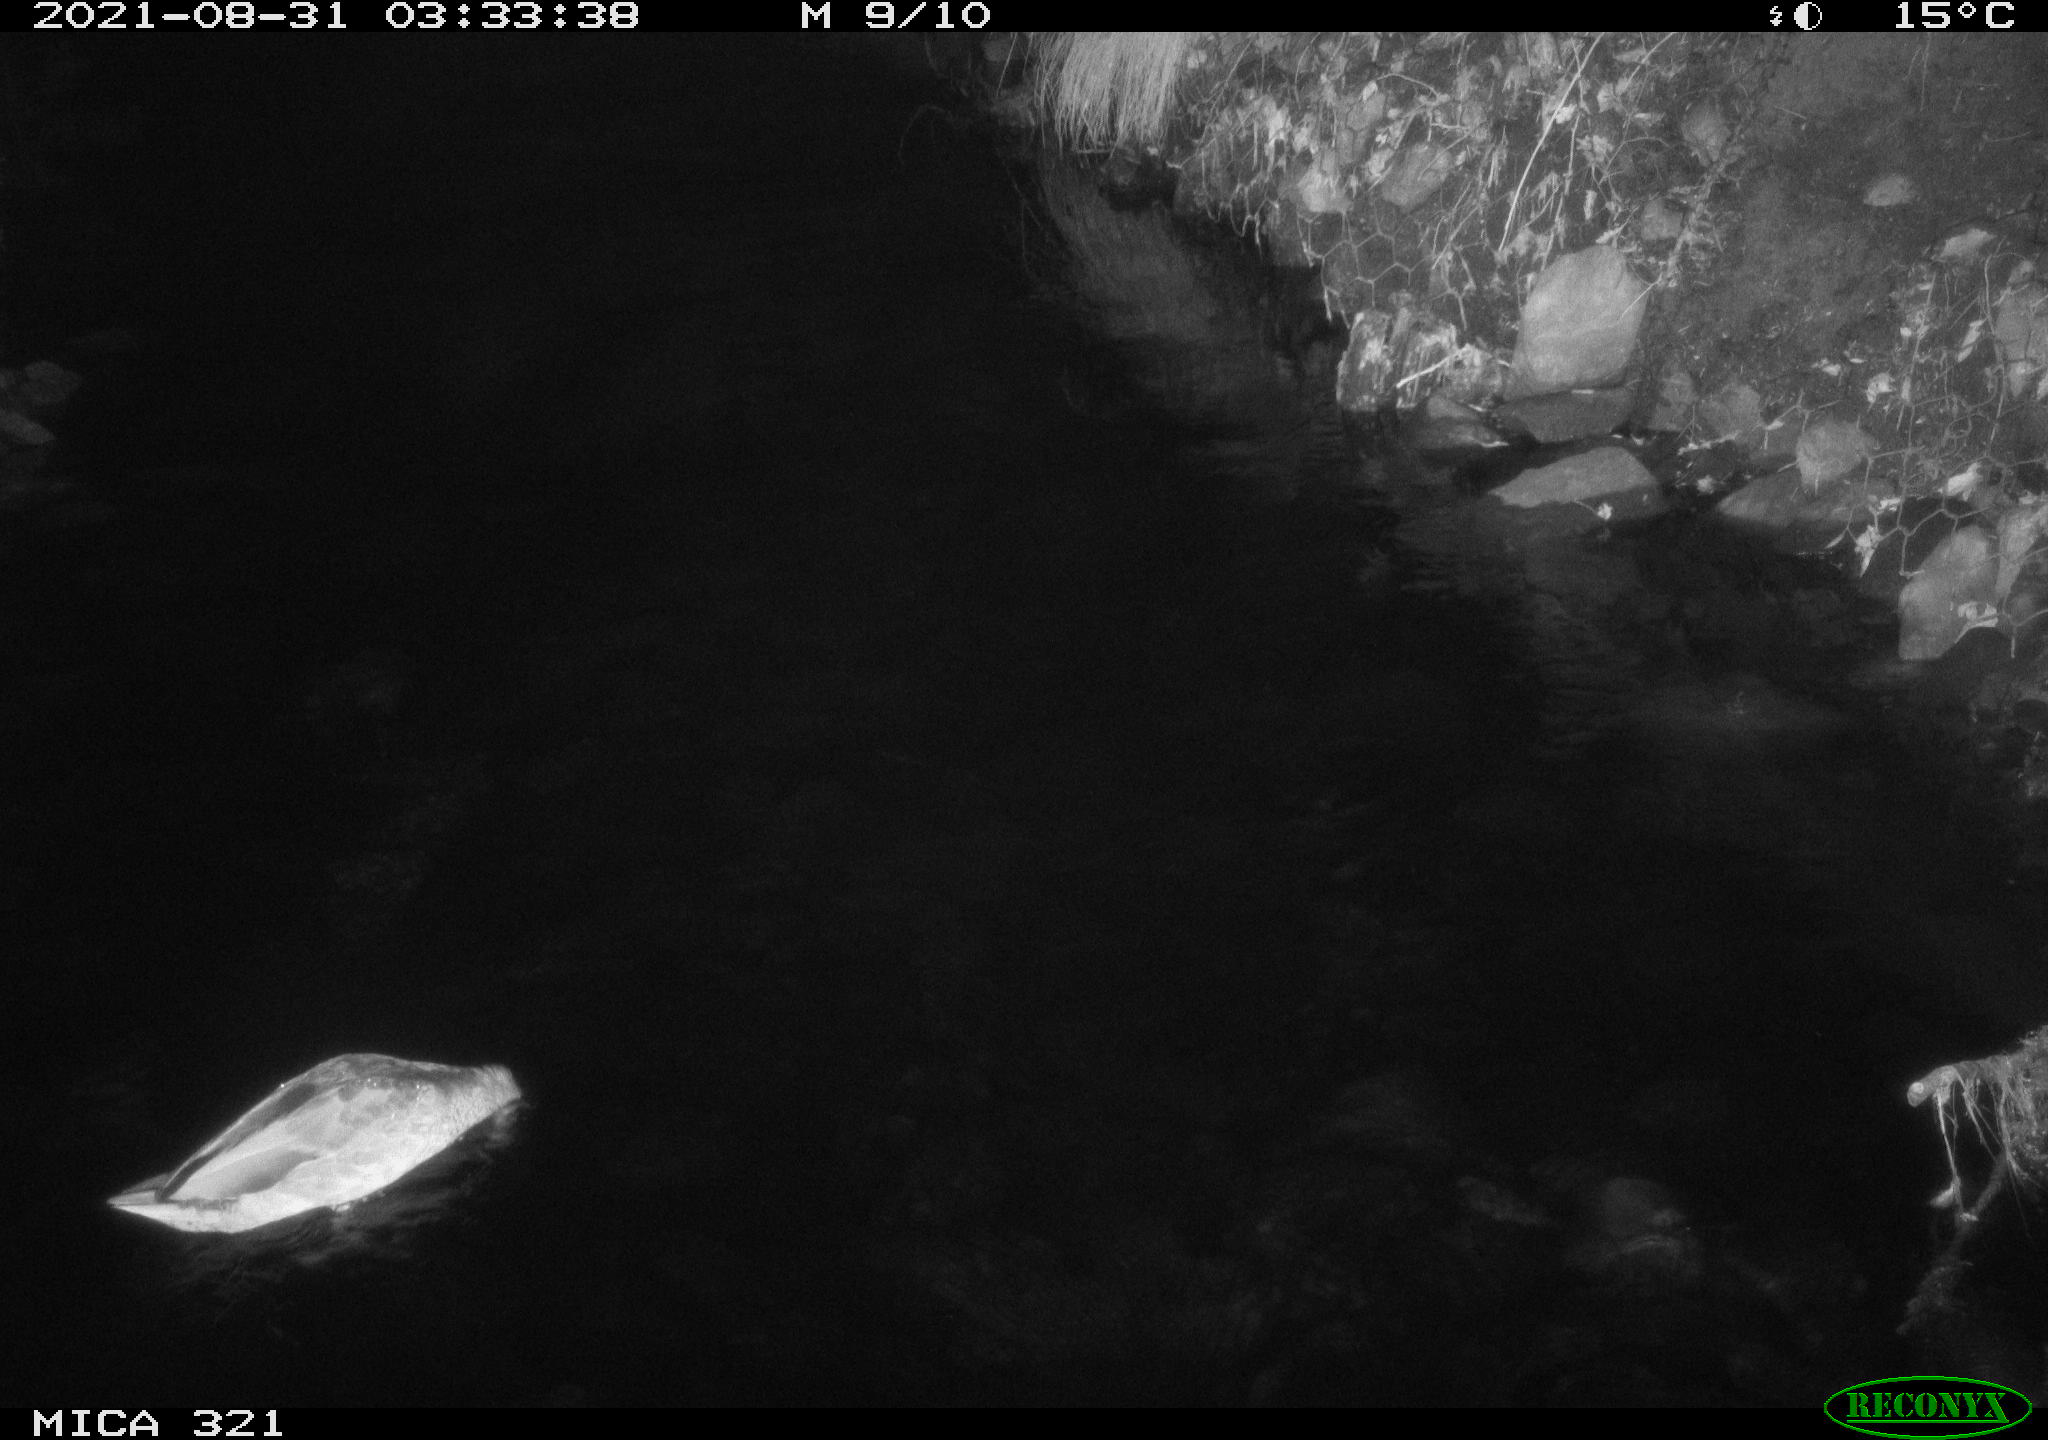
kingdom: Animalia
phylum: Chordata
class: Aves
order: Anseriformes
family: Anatidae
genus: Anas
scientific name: Anas platyrhynchos
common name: Mallard
